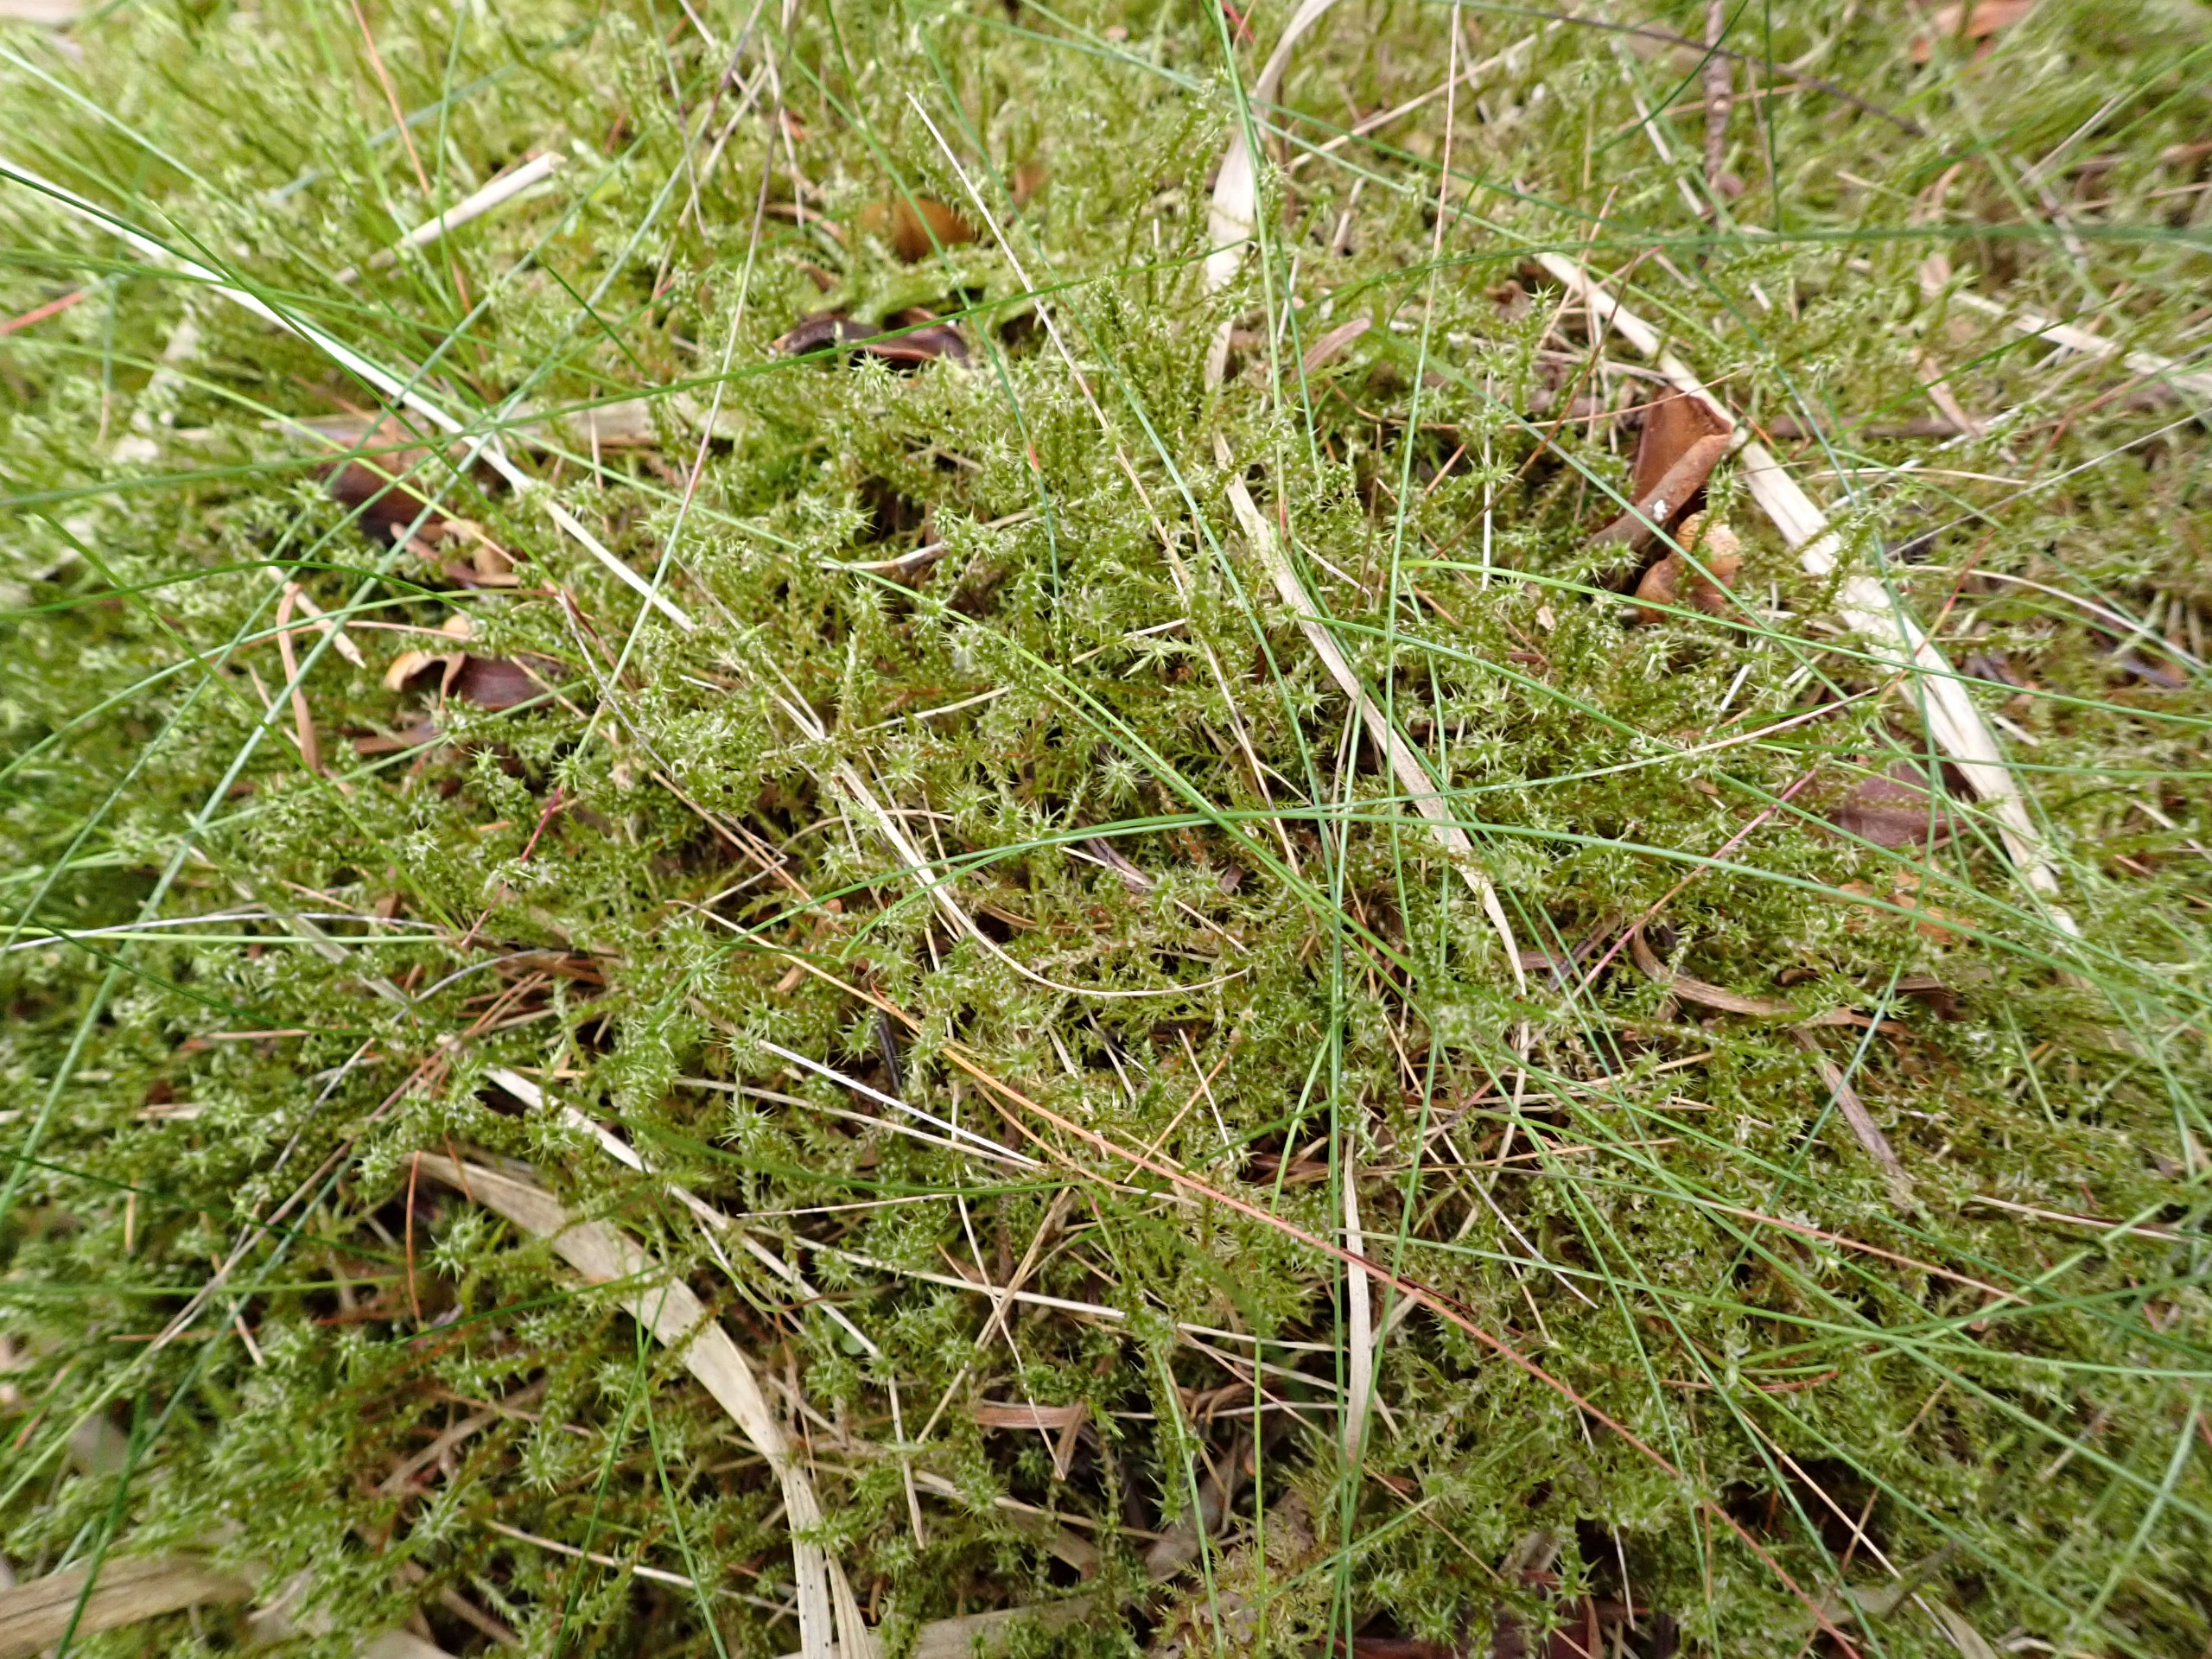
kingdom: Plantae
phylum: Bryophyta
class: Bryopsida
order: Hypnales
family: Hylocomiaceae
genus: Rhytidiadelphus
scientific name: Rhytidiadelphus squarrosus
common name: Plæne-kransemos
